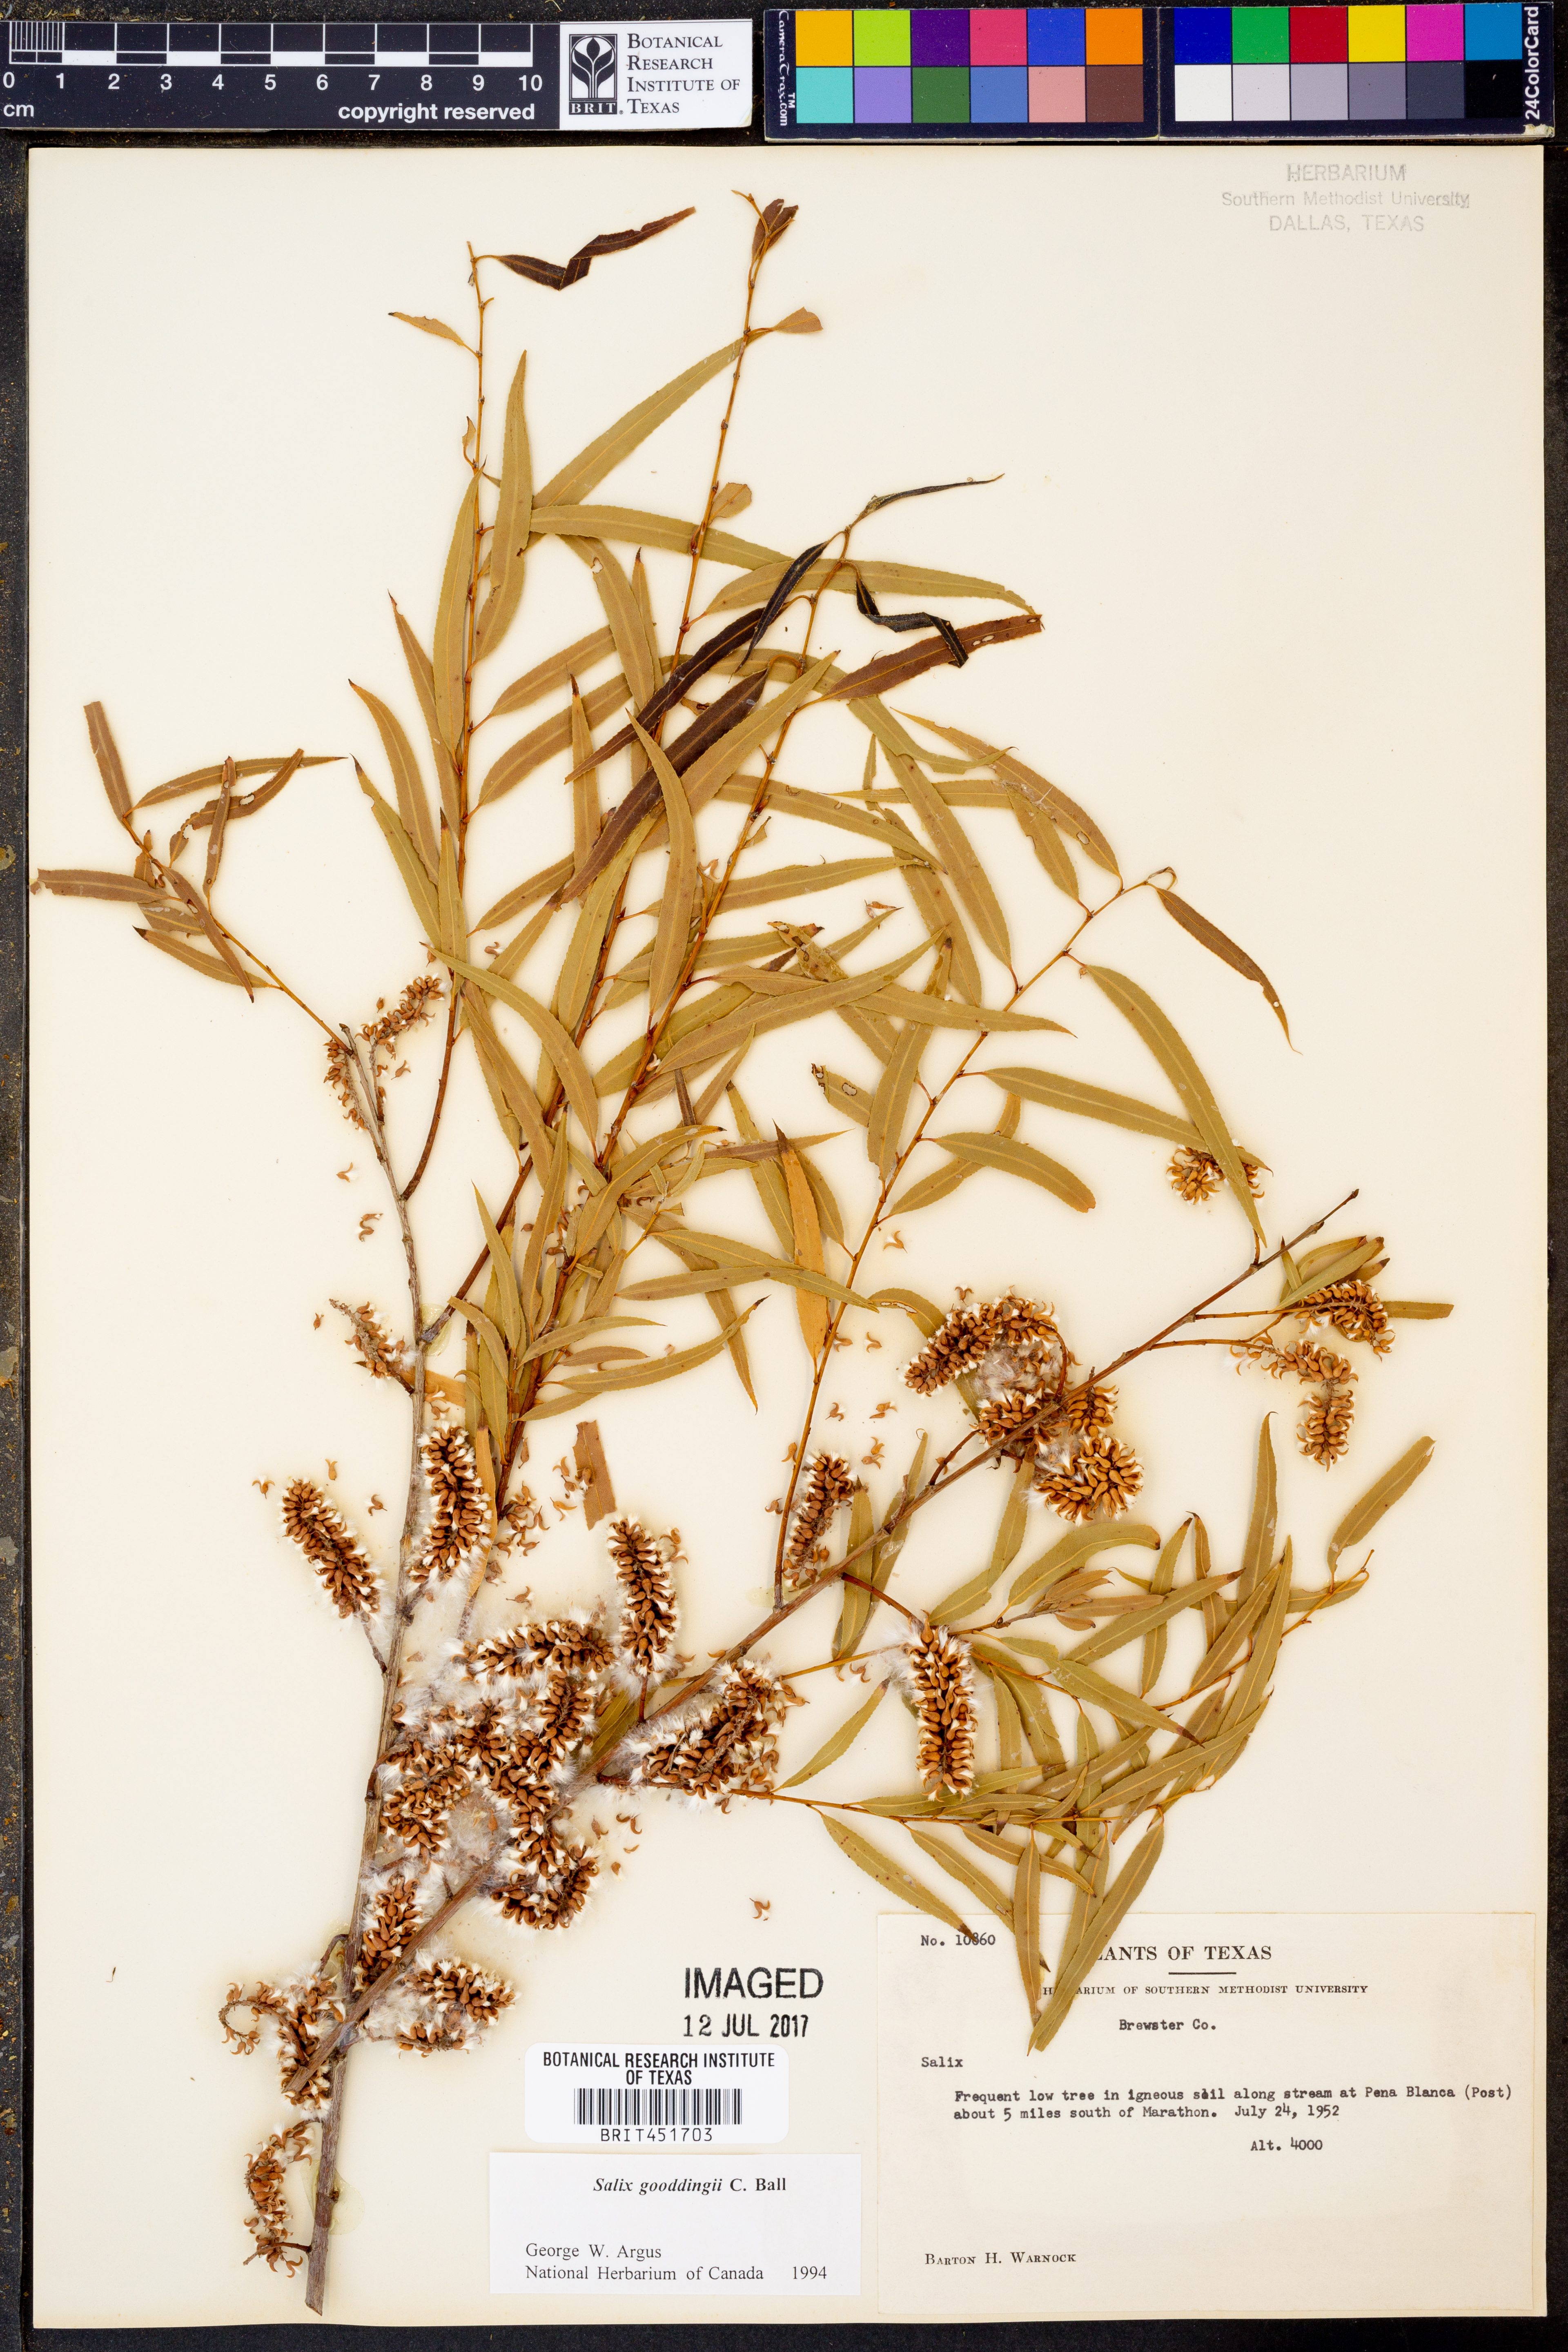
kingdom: Plantae
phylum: Tracheophyta
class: Magnoliopsida
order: Malpighiales
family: Salicaceae
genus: Salix
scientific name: Salix gooddingii
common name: Goodding's willow
